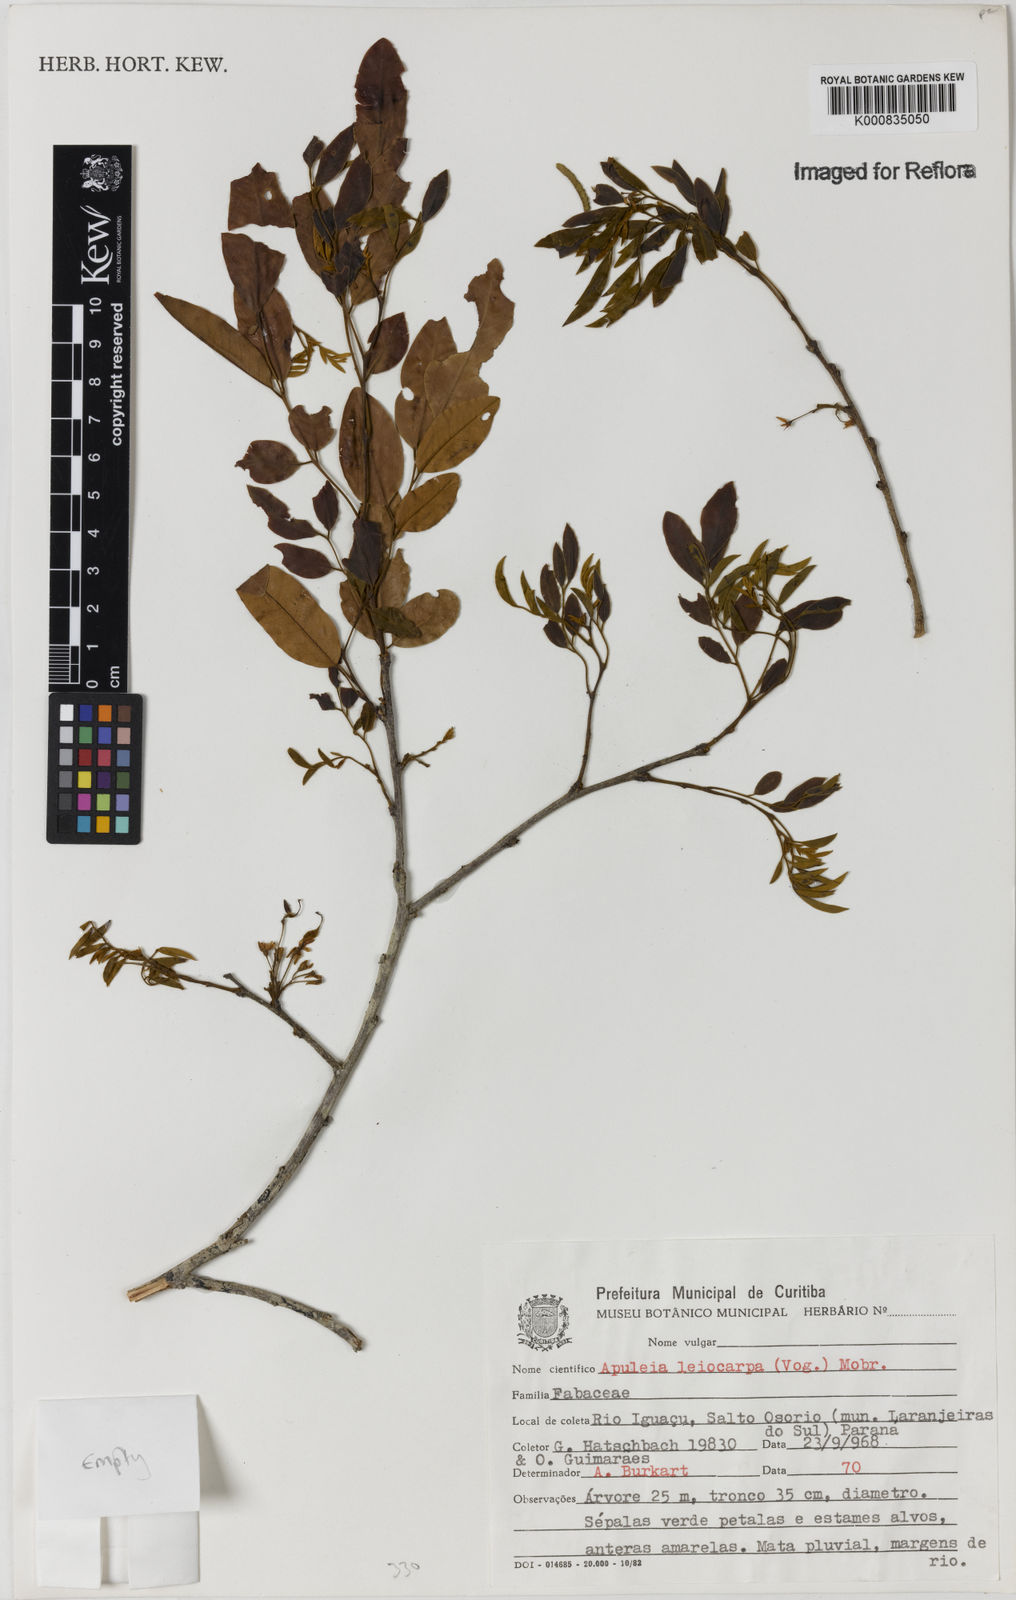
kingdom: Plantae
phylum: Tracheophyta
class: Magnoliopsida
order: Fabales
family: Fabaceae
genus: Apuleia
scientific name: Apuleia leiocarpa
